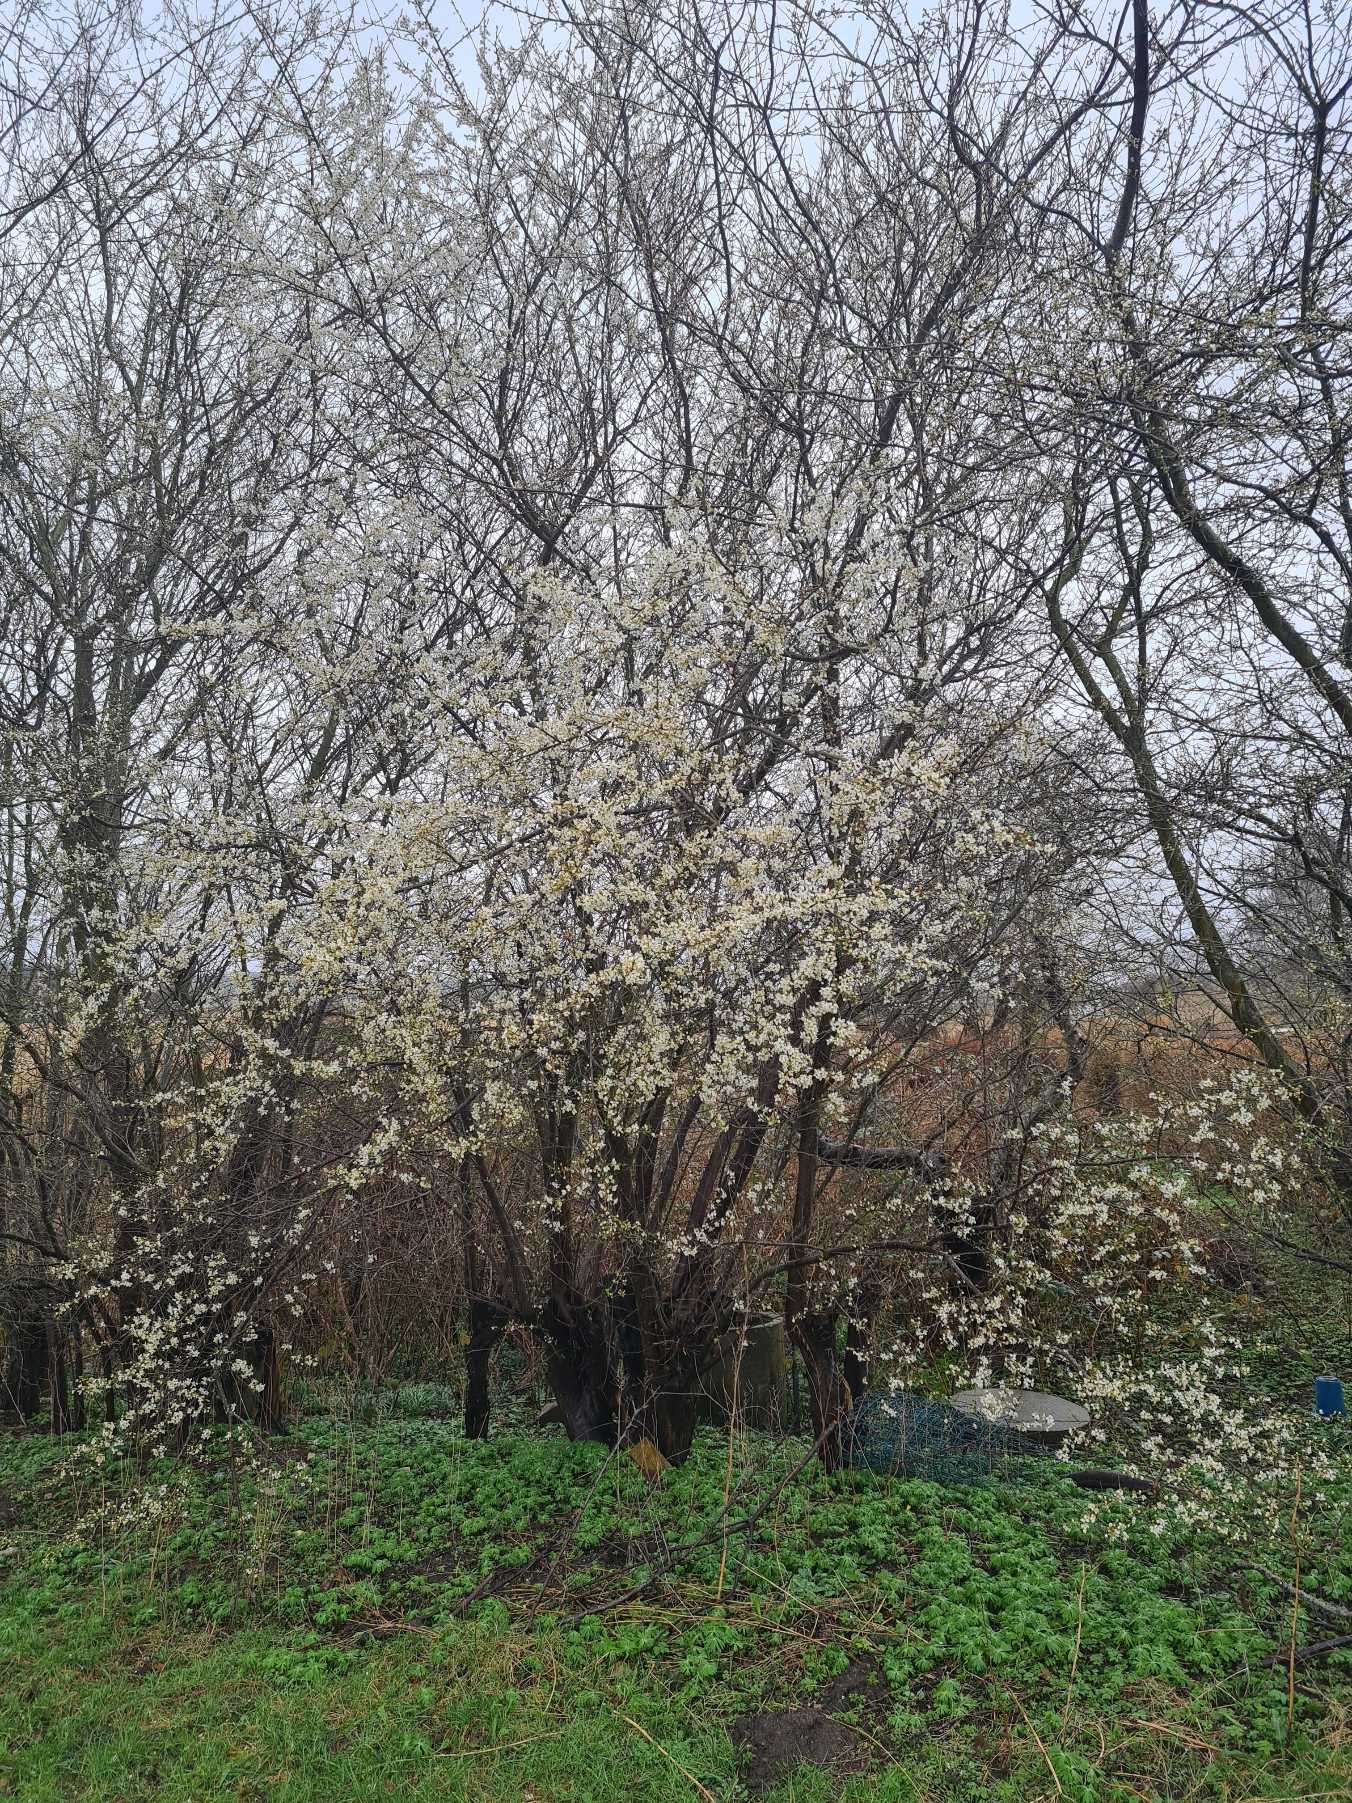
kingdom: Plantae
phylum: Tracheophyta
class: Magnoliopsida
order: Rosales
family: Rosaceae
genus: Prunus
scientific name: Prunus cerasifera
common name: Mirabel
